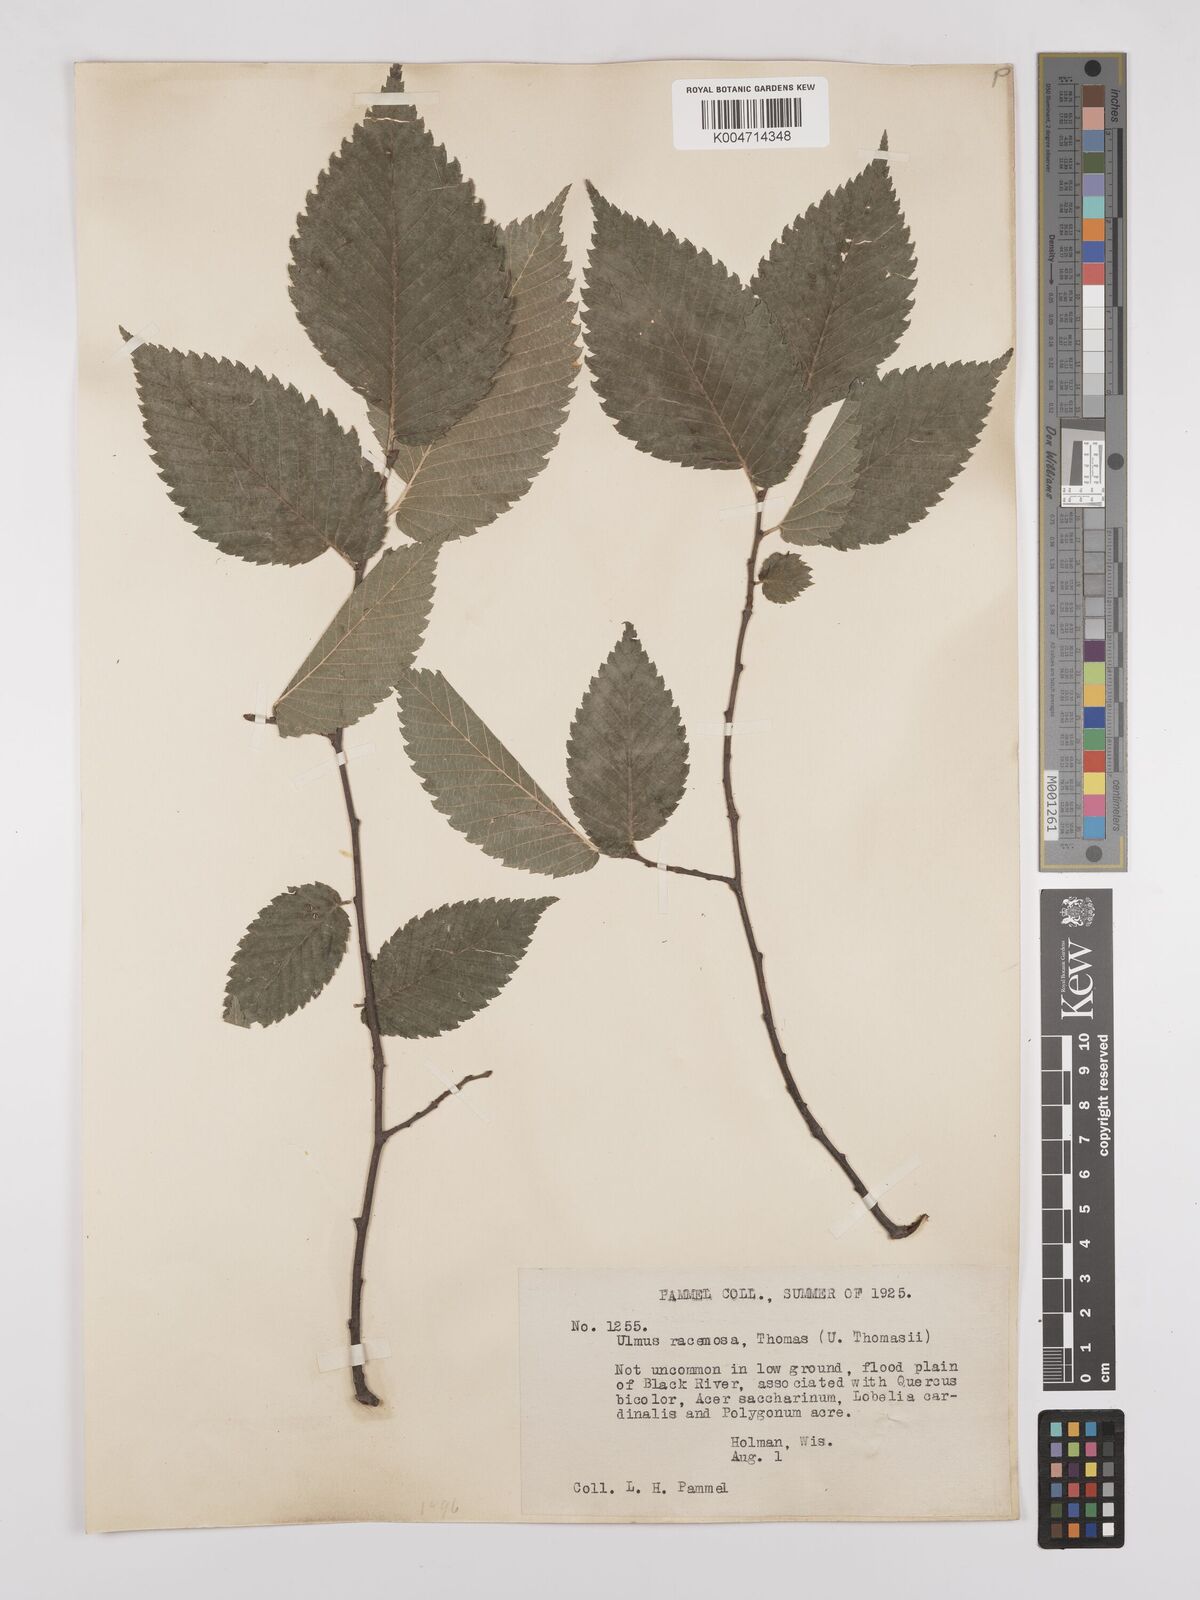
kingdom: Plantae
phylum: Tracheophyta
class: Magnoliopsida
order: Rosales
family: Ulmaceae
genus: Ulmus
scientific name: Ulmus americana
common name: American elm
